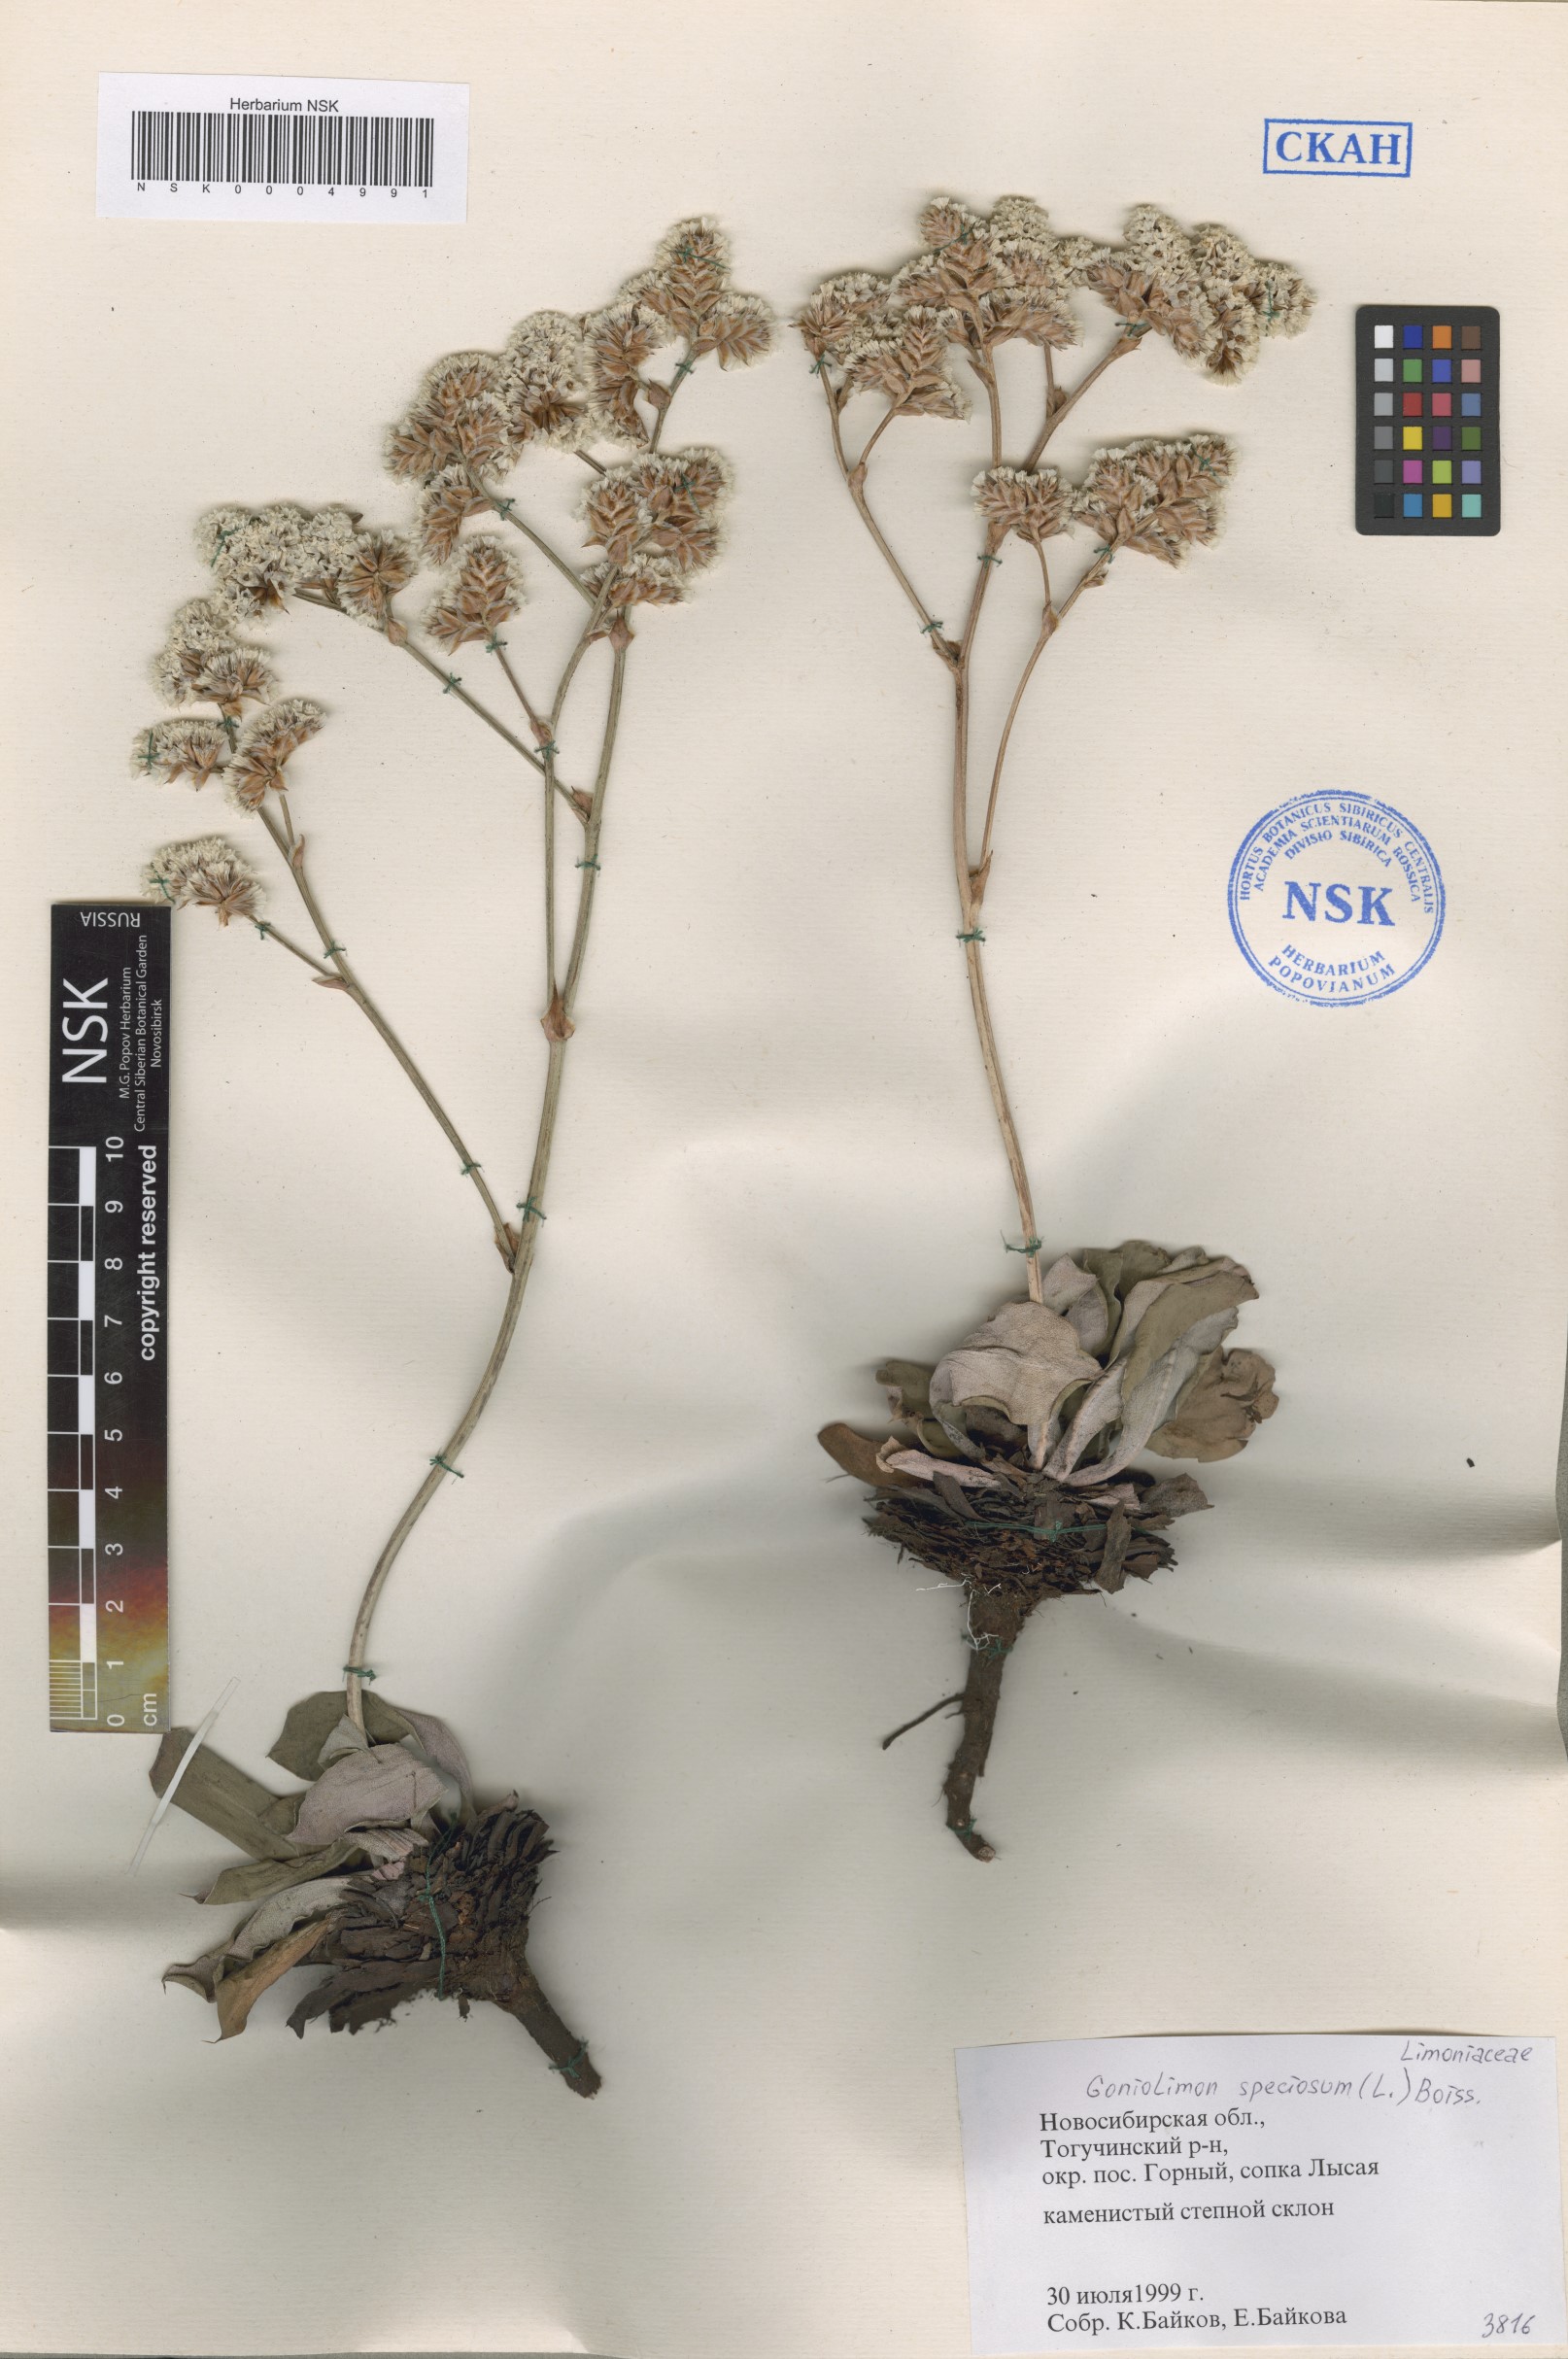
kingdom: Plantae
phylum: Tracheophyta
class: Magnoliopsida
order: Caryophyllales
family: Plumbaginaceae
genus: Goniolimon
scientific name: Goniolimon speciosum
